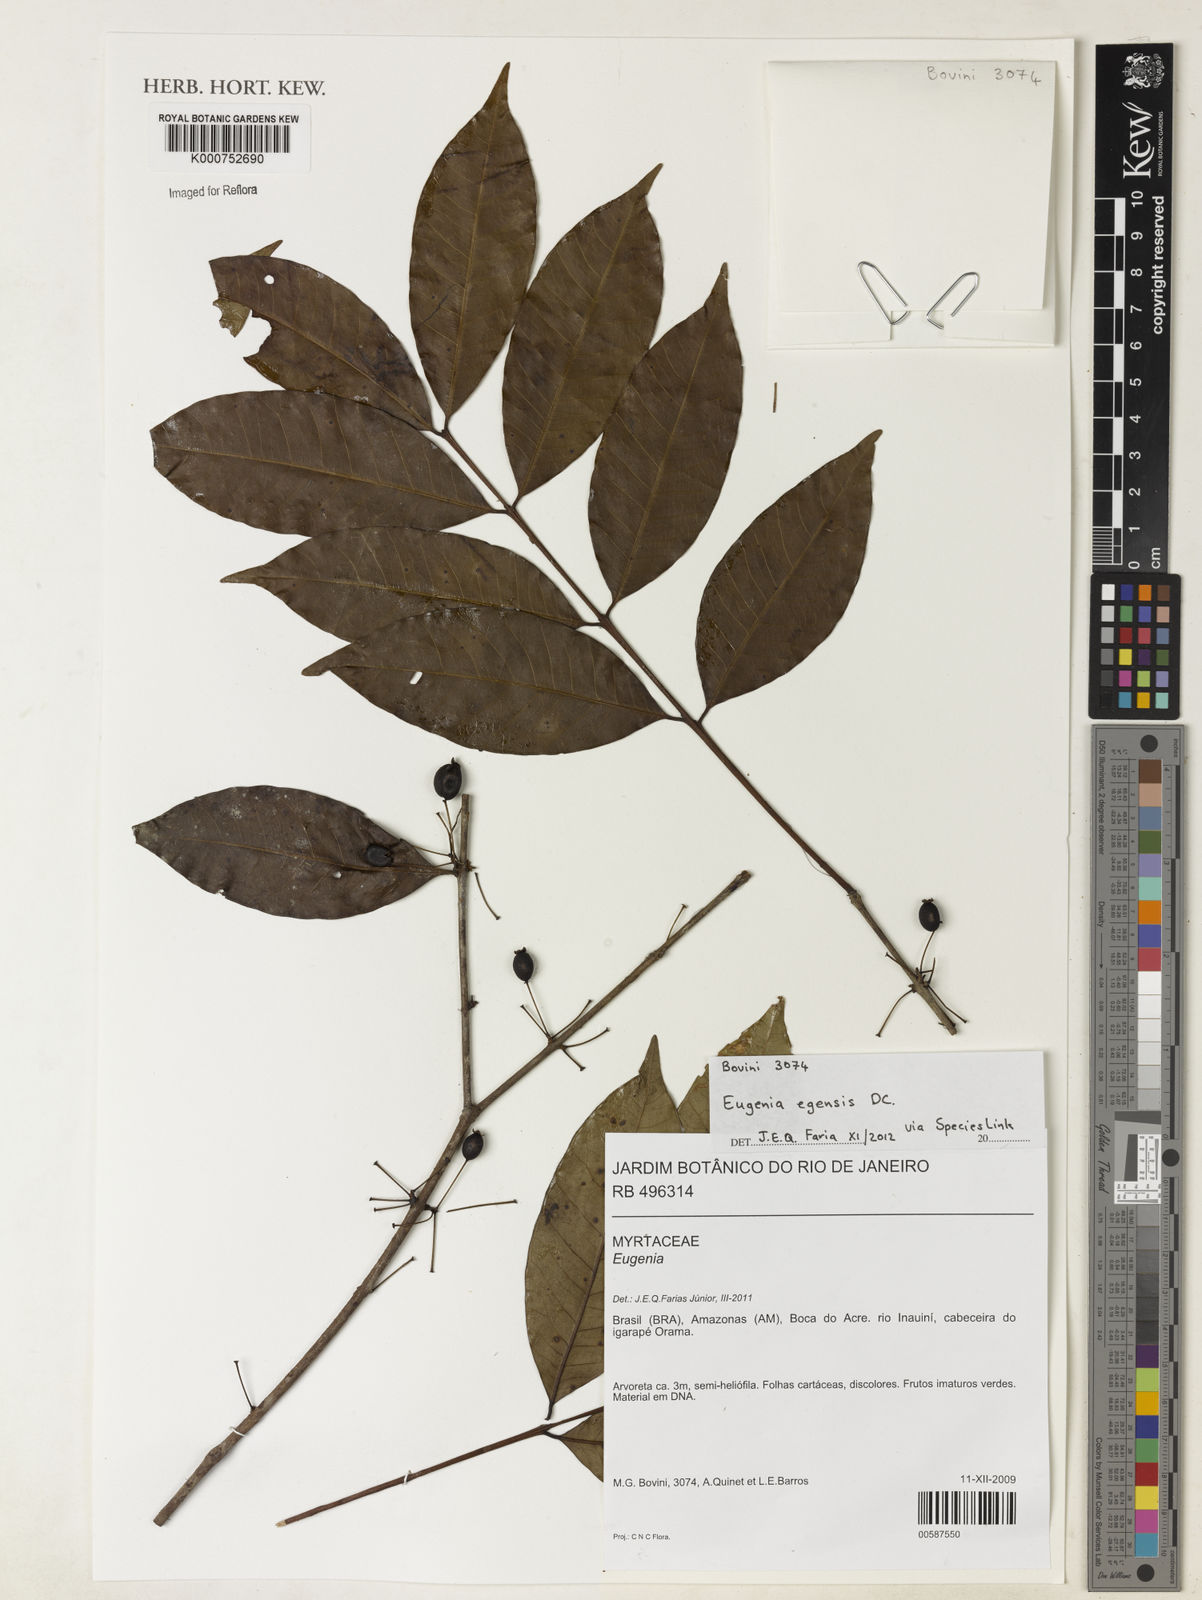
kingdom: Plantae
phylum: Tracheophyta
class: Magnoliopsida
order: Myrtales
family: Myrtaceae
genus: Eugenia
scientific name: Eugenia egensis
